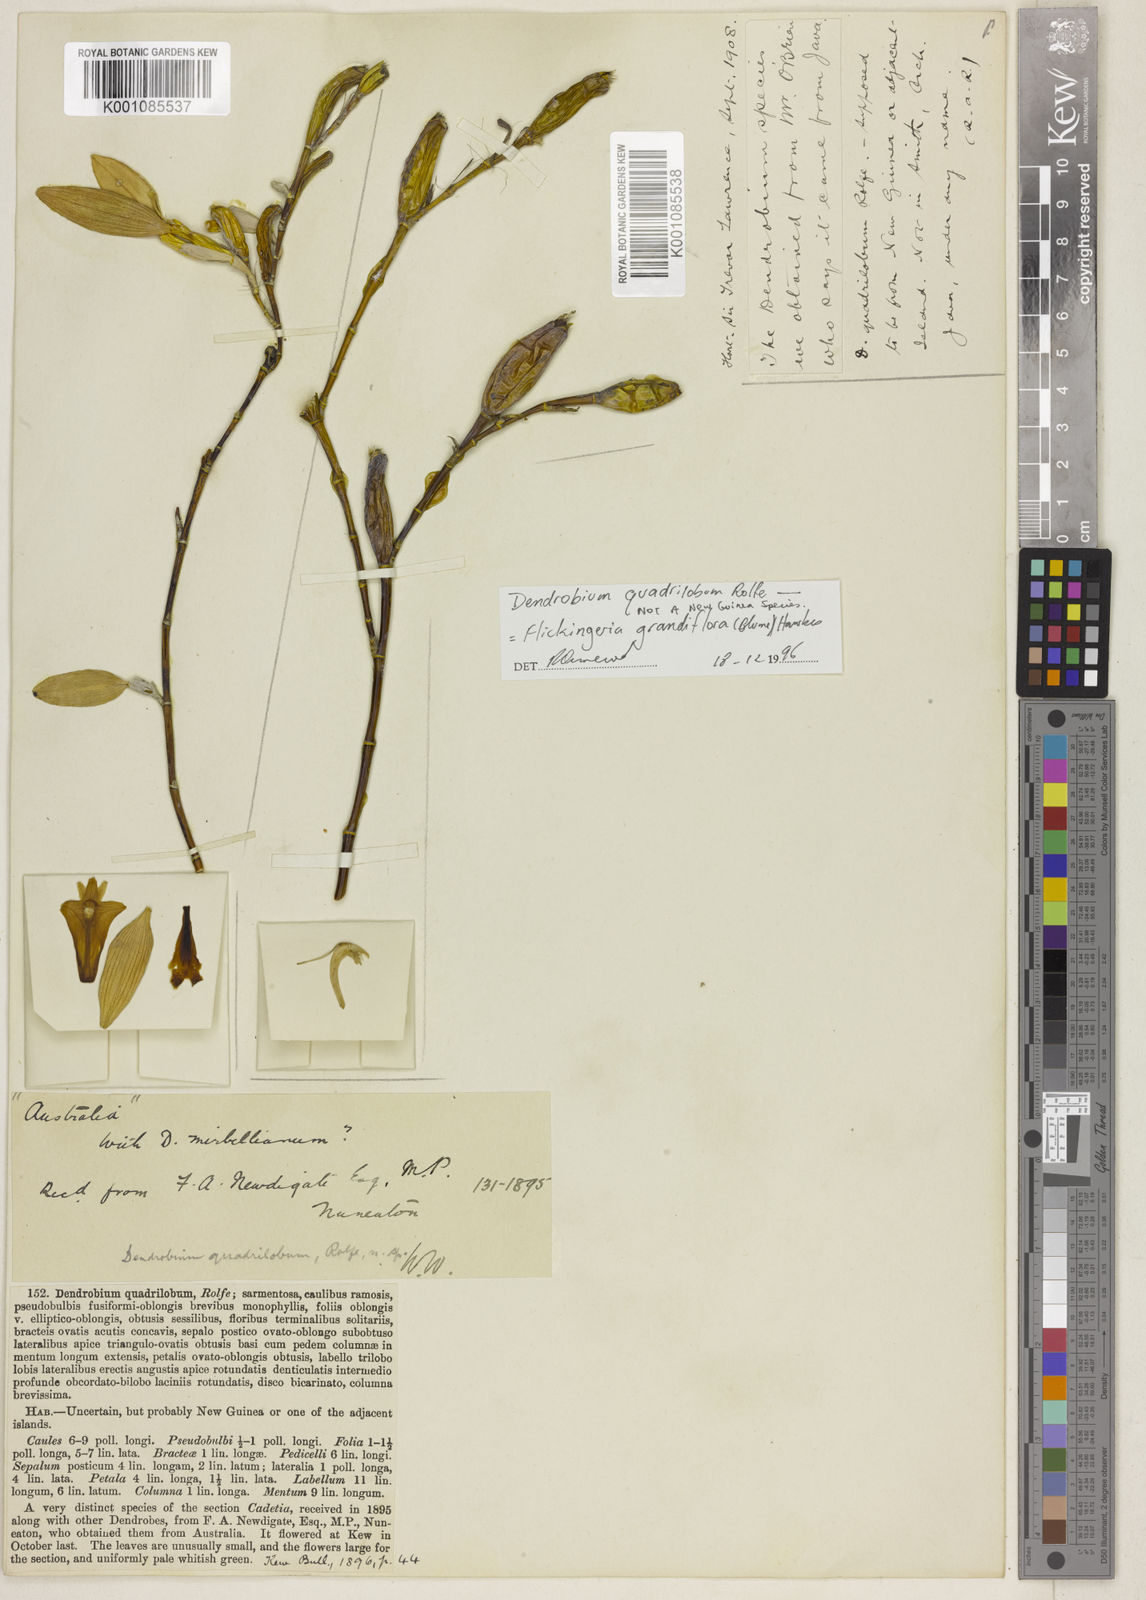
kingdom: Plantae
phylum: Tracheophyta
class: Liliopsida
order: Asparagales
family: Orchidaceae
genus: Dendrobium
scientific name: Dendrobium conspicuum
